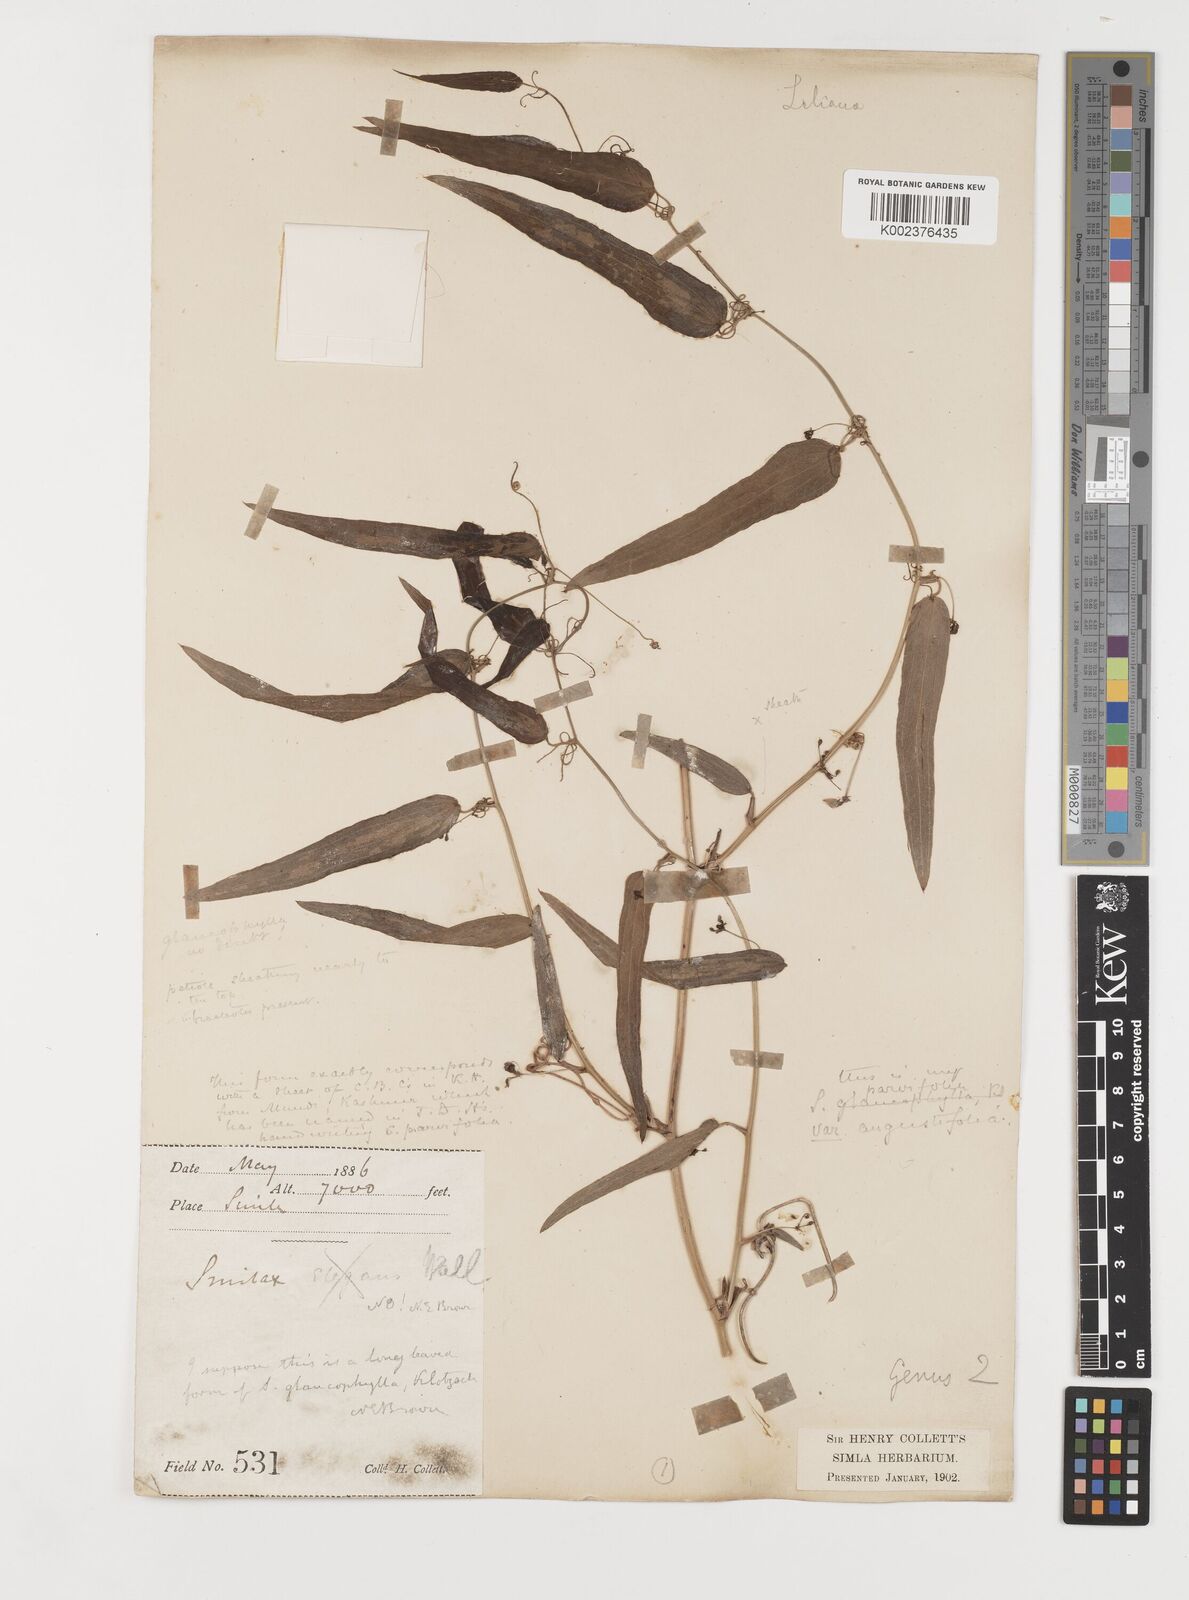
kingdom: Plantae
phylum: Tracheophyta
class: Liliopsida
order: Liliales
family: Smilacaceae
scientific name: Smilacaceae
